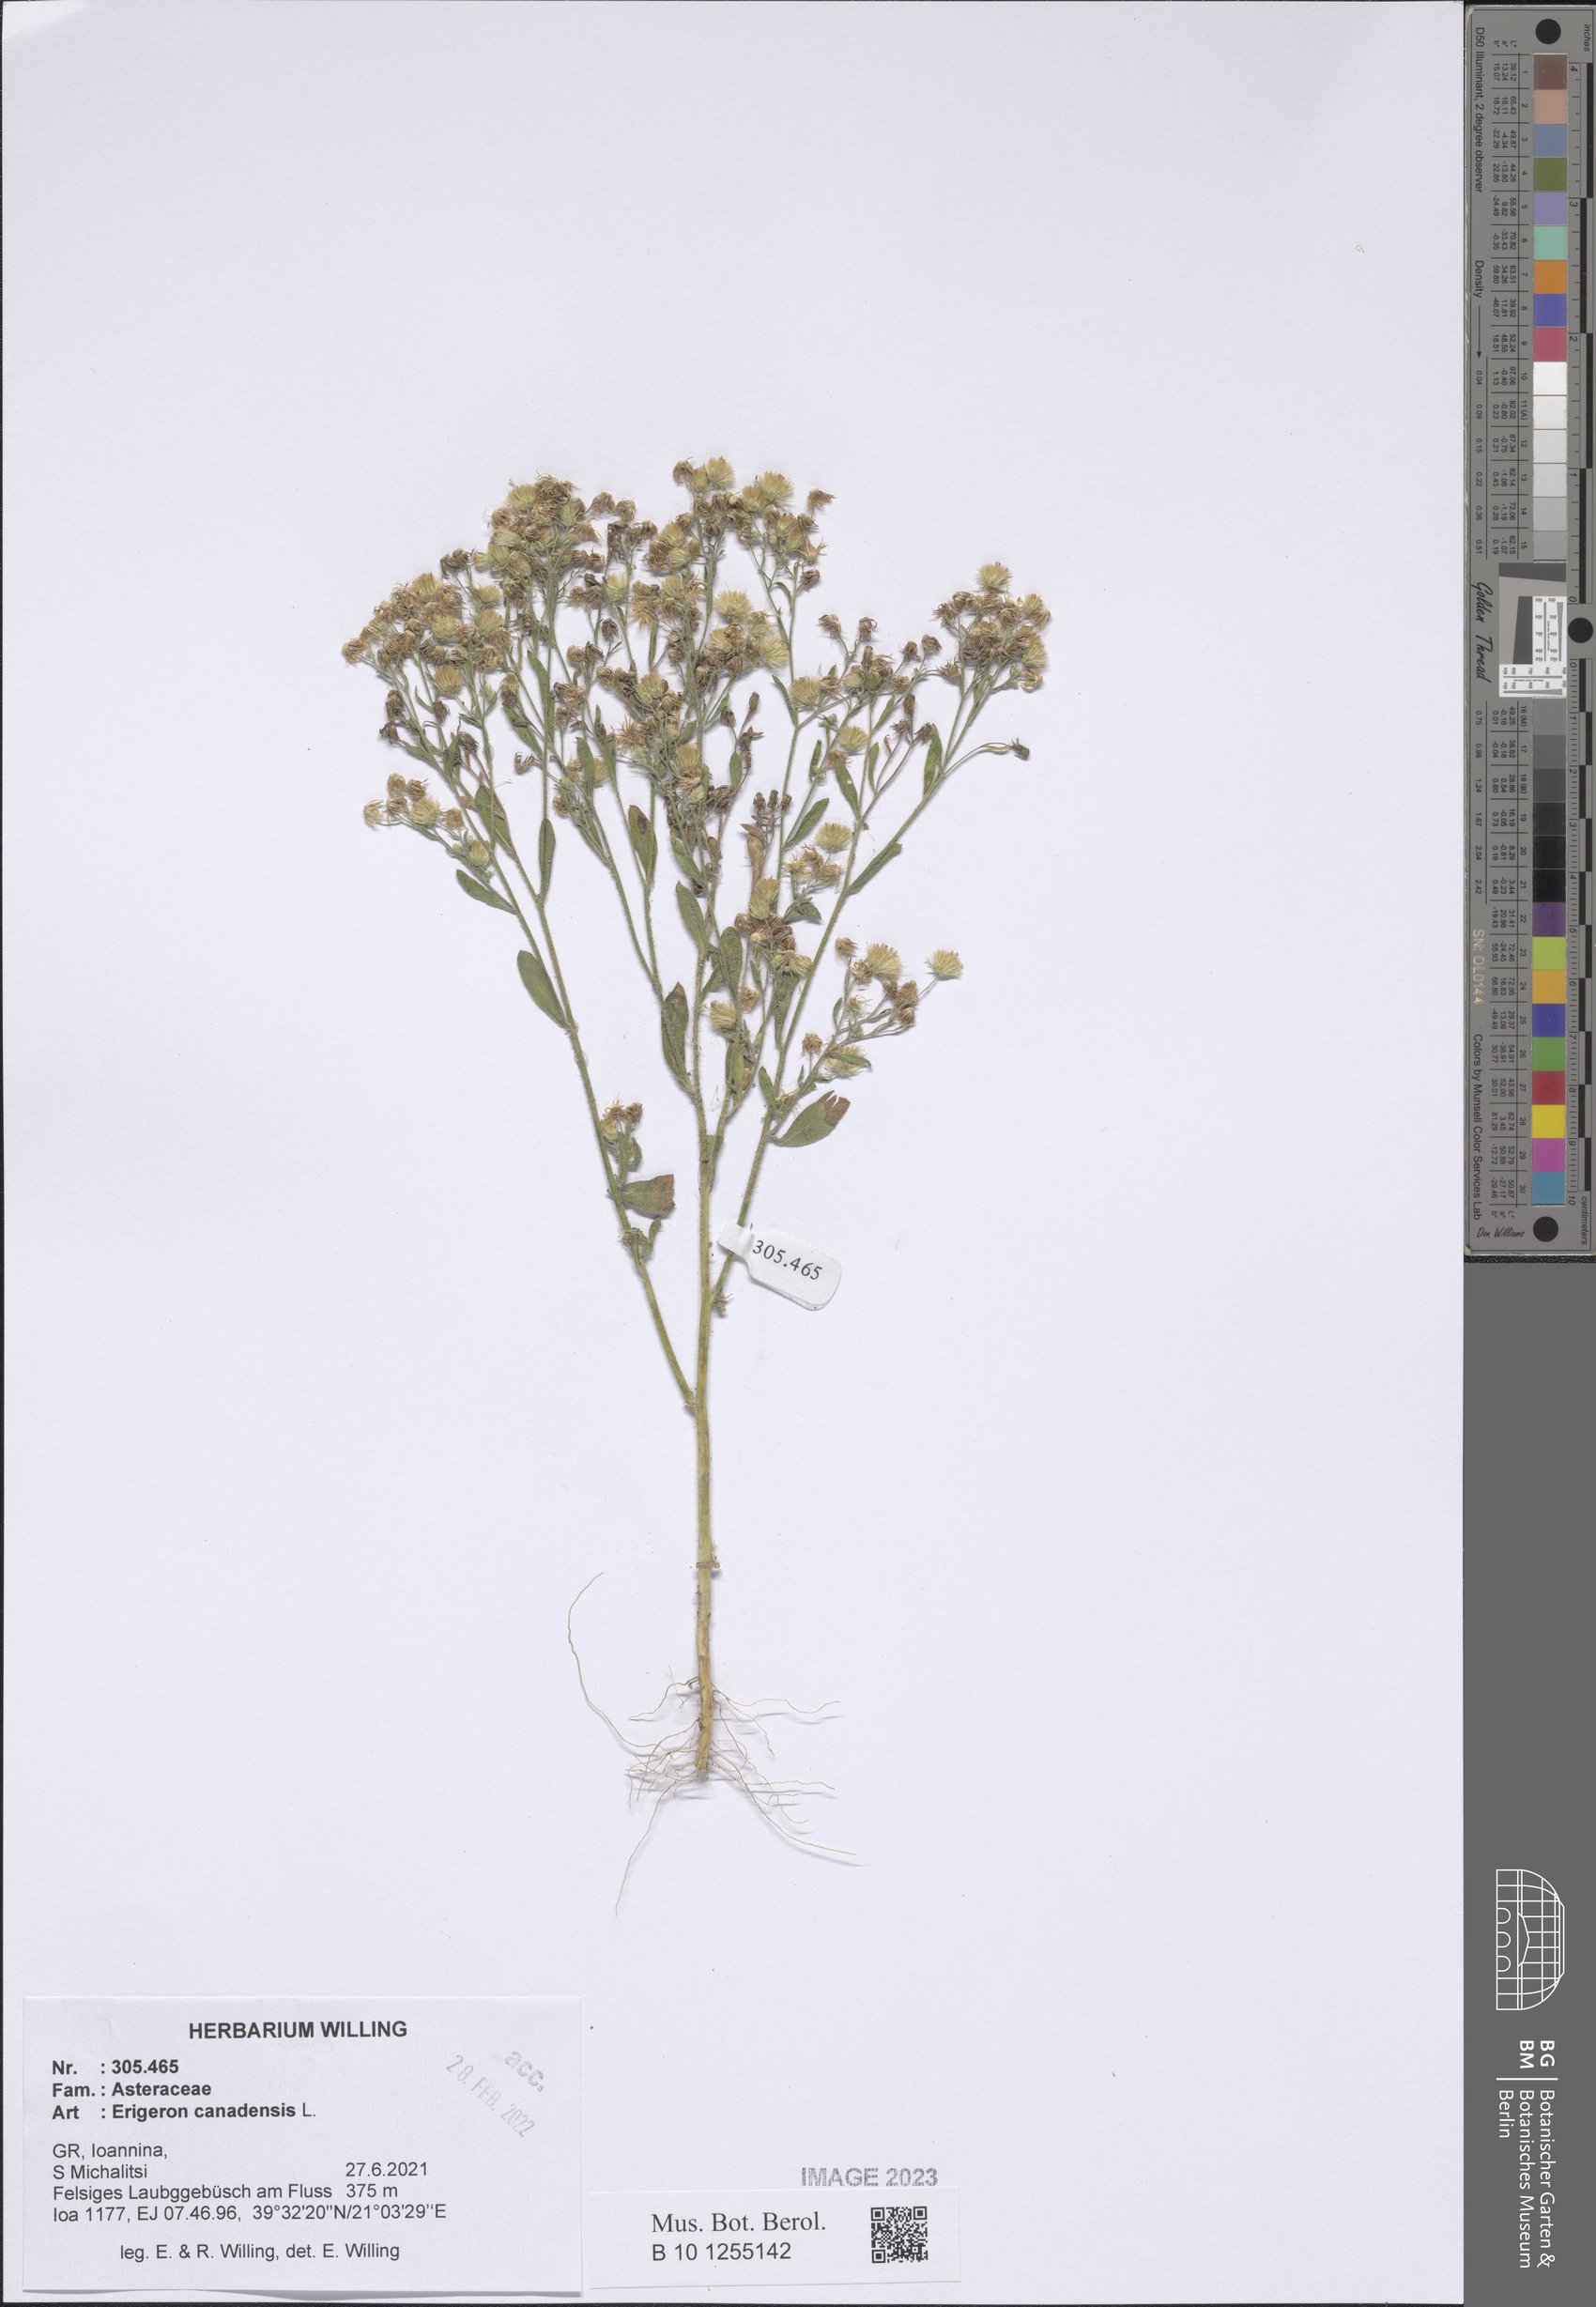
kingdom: Plantae
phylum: Tracheophyta
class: Magnoliopsida
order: Asterales
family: Asteraceae
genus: Erigeron
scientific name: Erigeron canadensis
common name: Canadian fleabane
